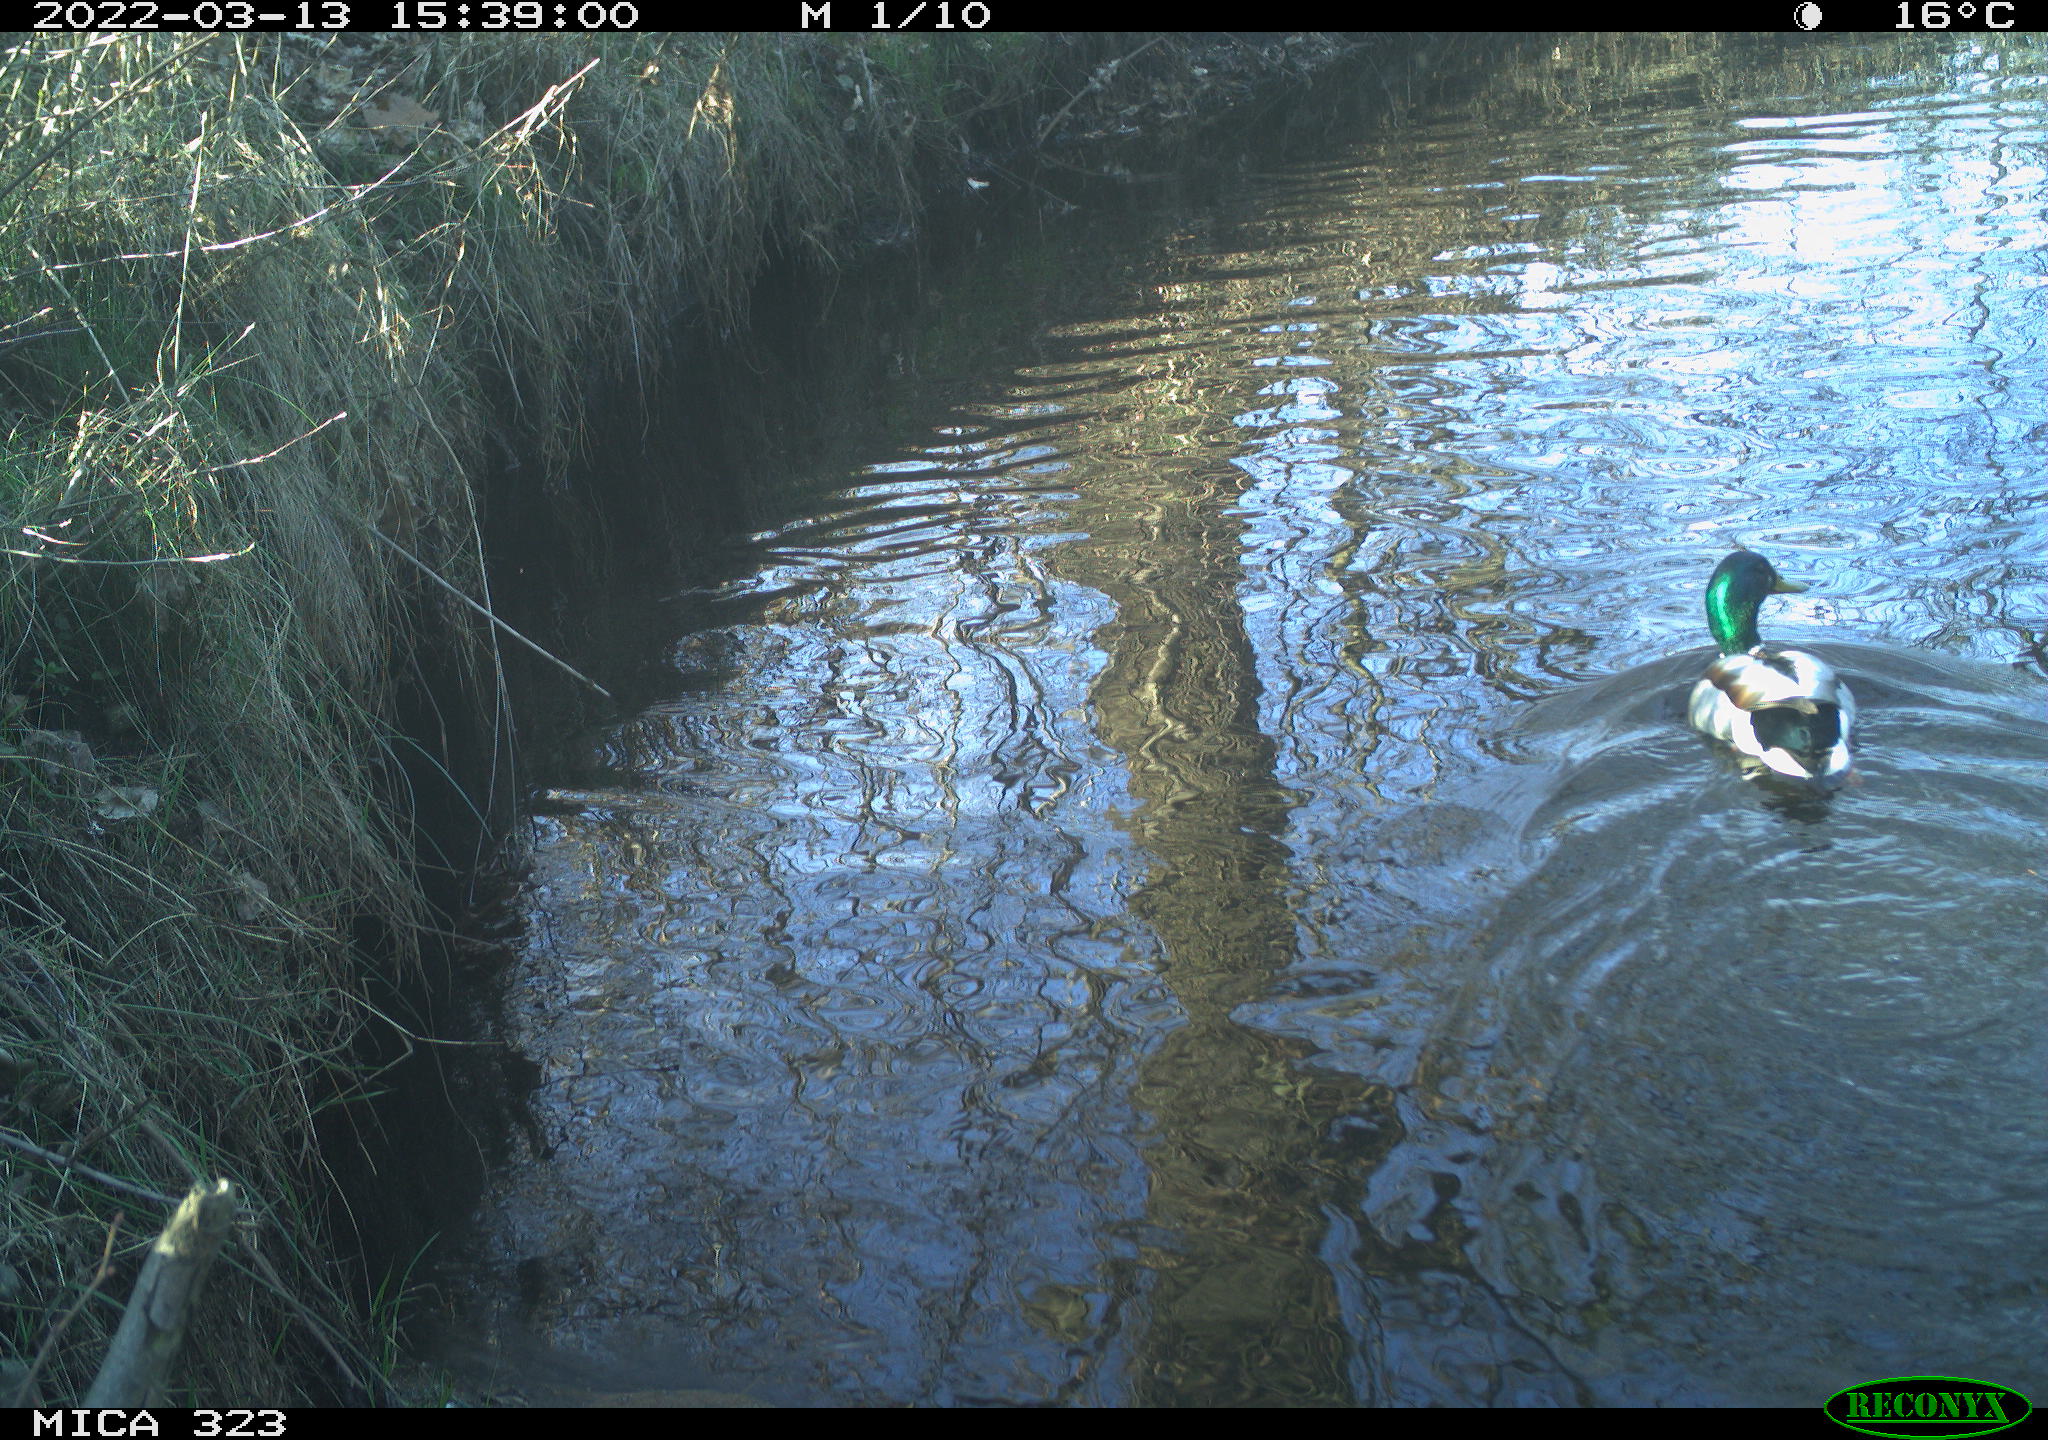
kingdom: Animalia
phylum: Chordata
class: Aves
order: Anseriformes
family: Anatidae
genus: Anas
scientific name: Anas platyrhynchos
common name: Mallard
